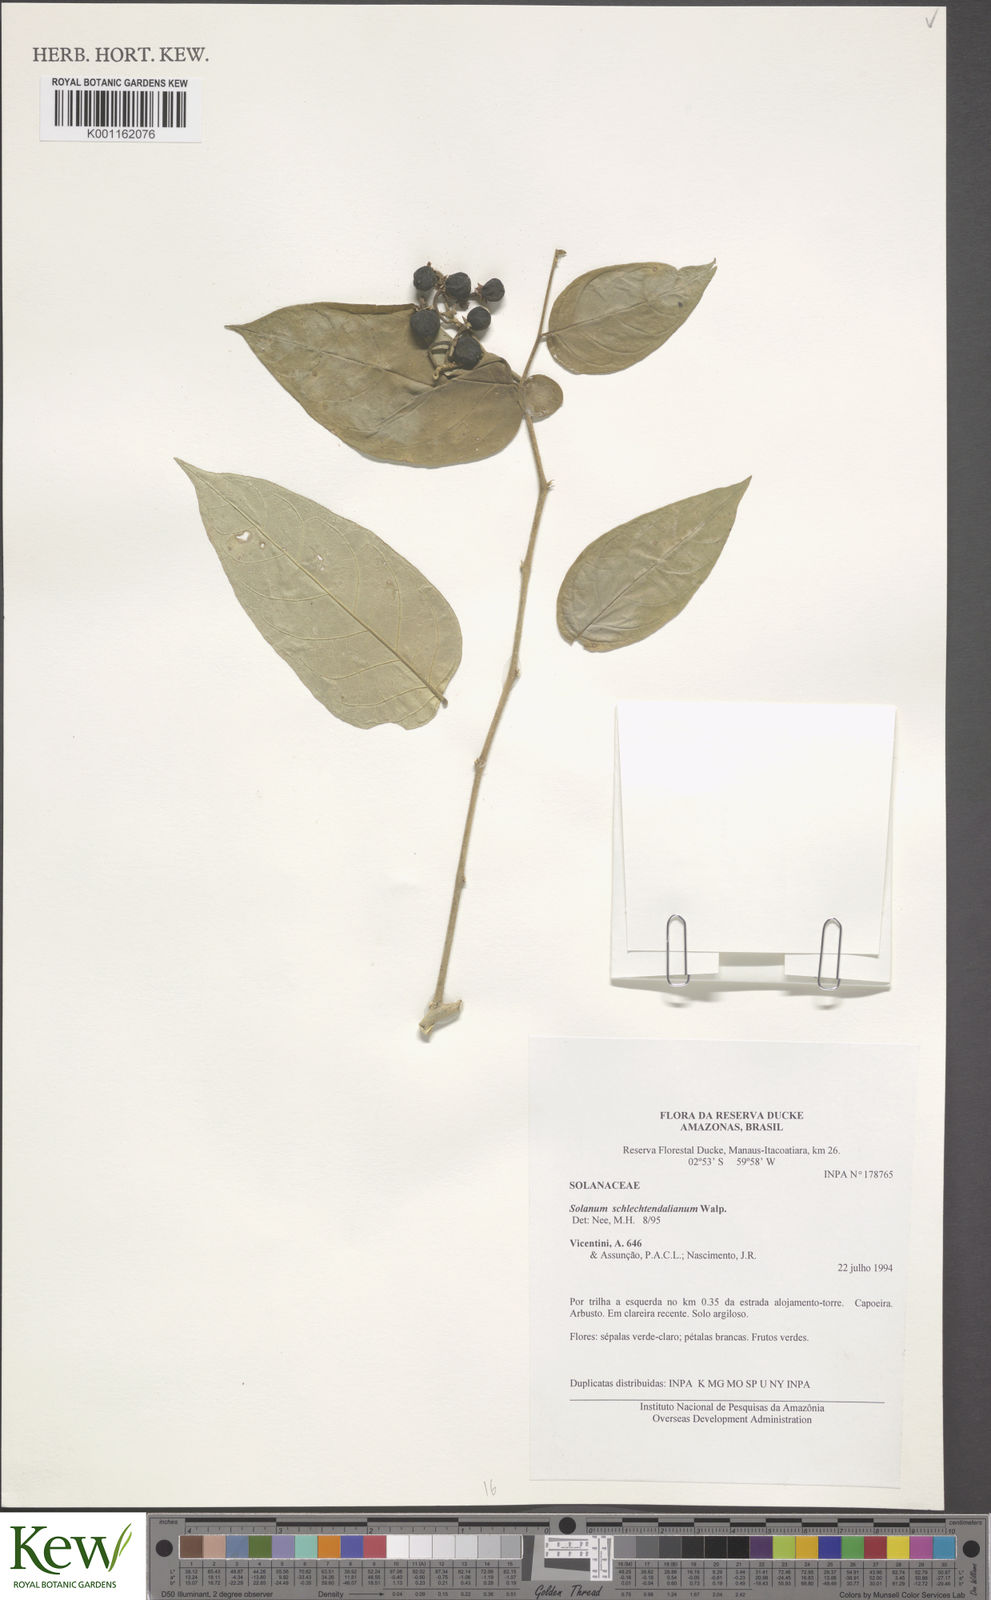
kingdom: Plantae
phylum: Tracheophyta
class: Magnoliopsida
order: Solanales
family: Solanaceae
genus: Solanum
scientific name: Solanum schlechtendalianum
